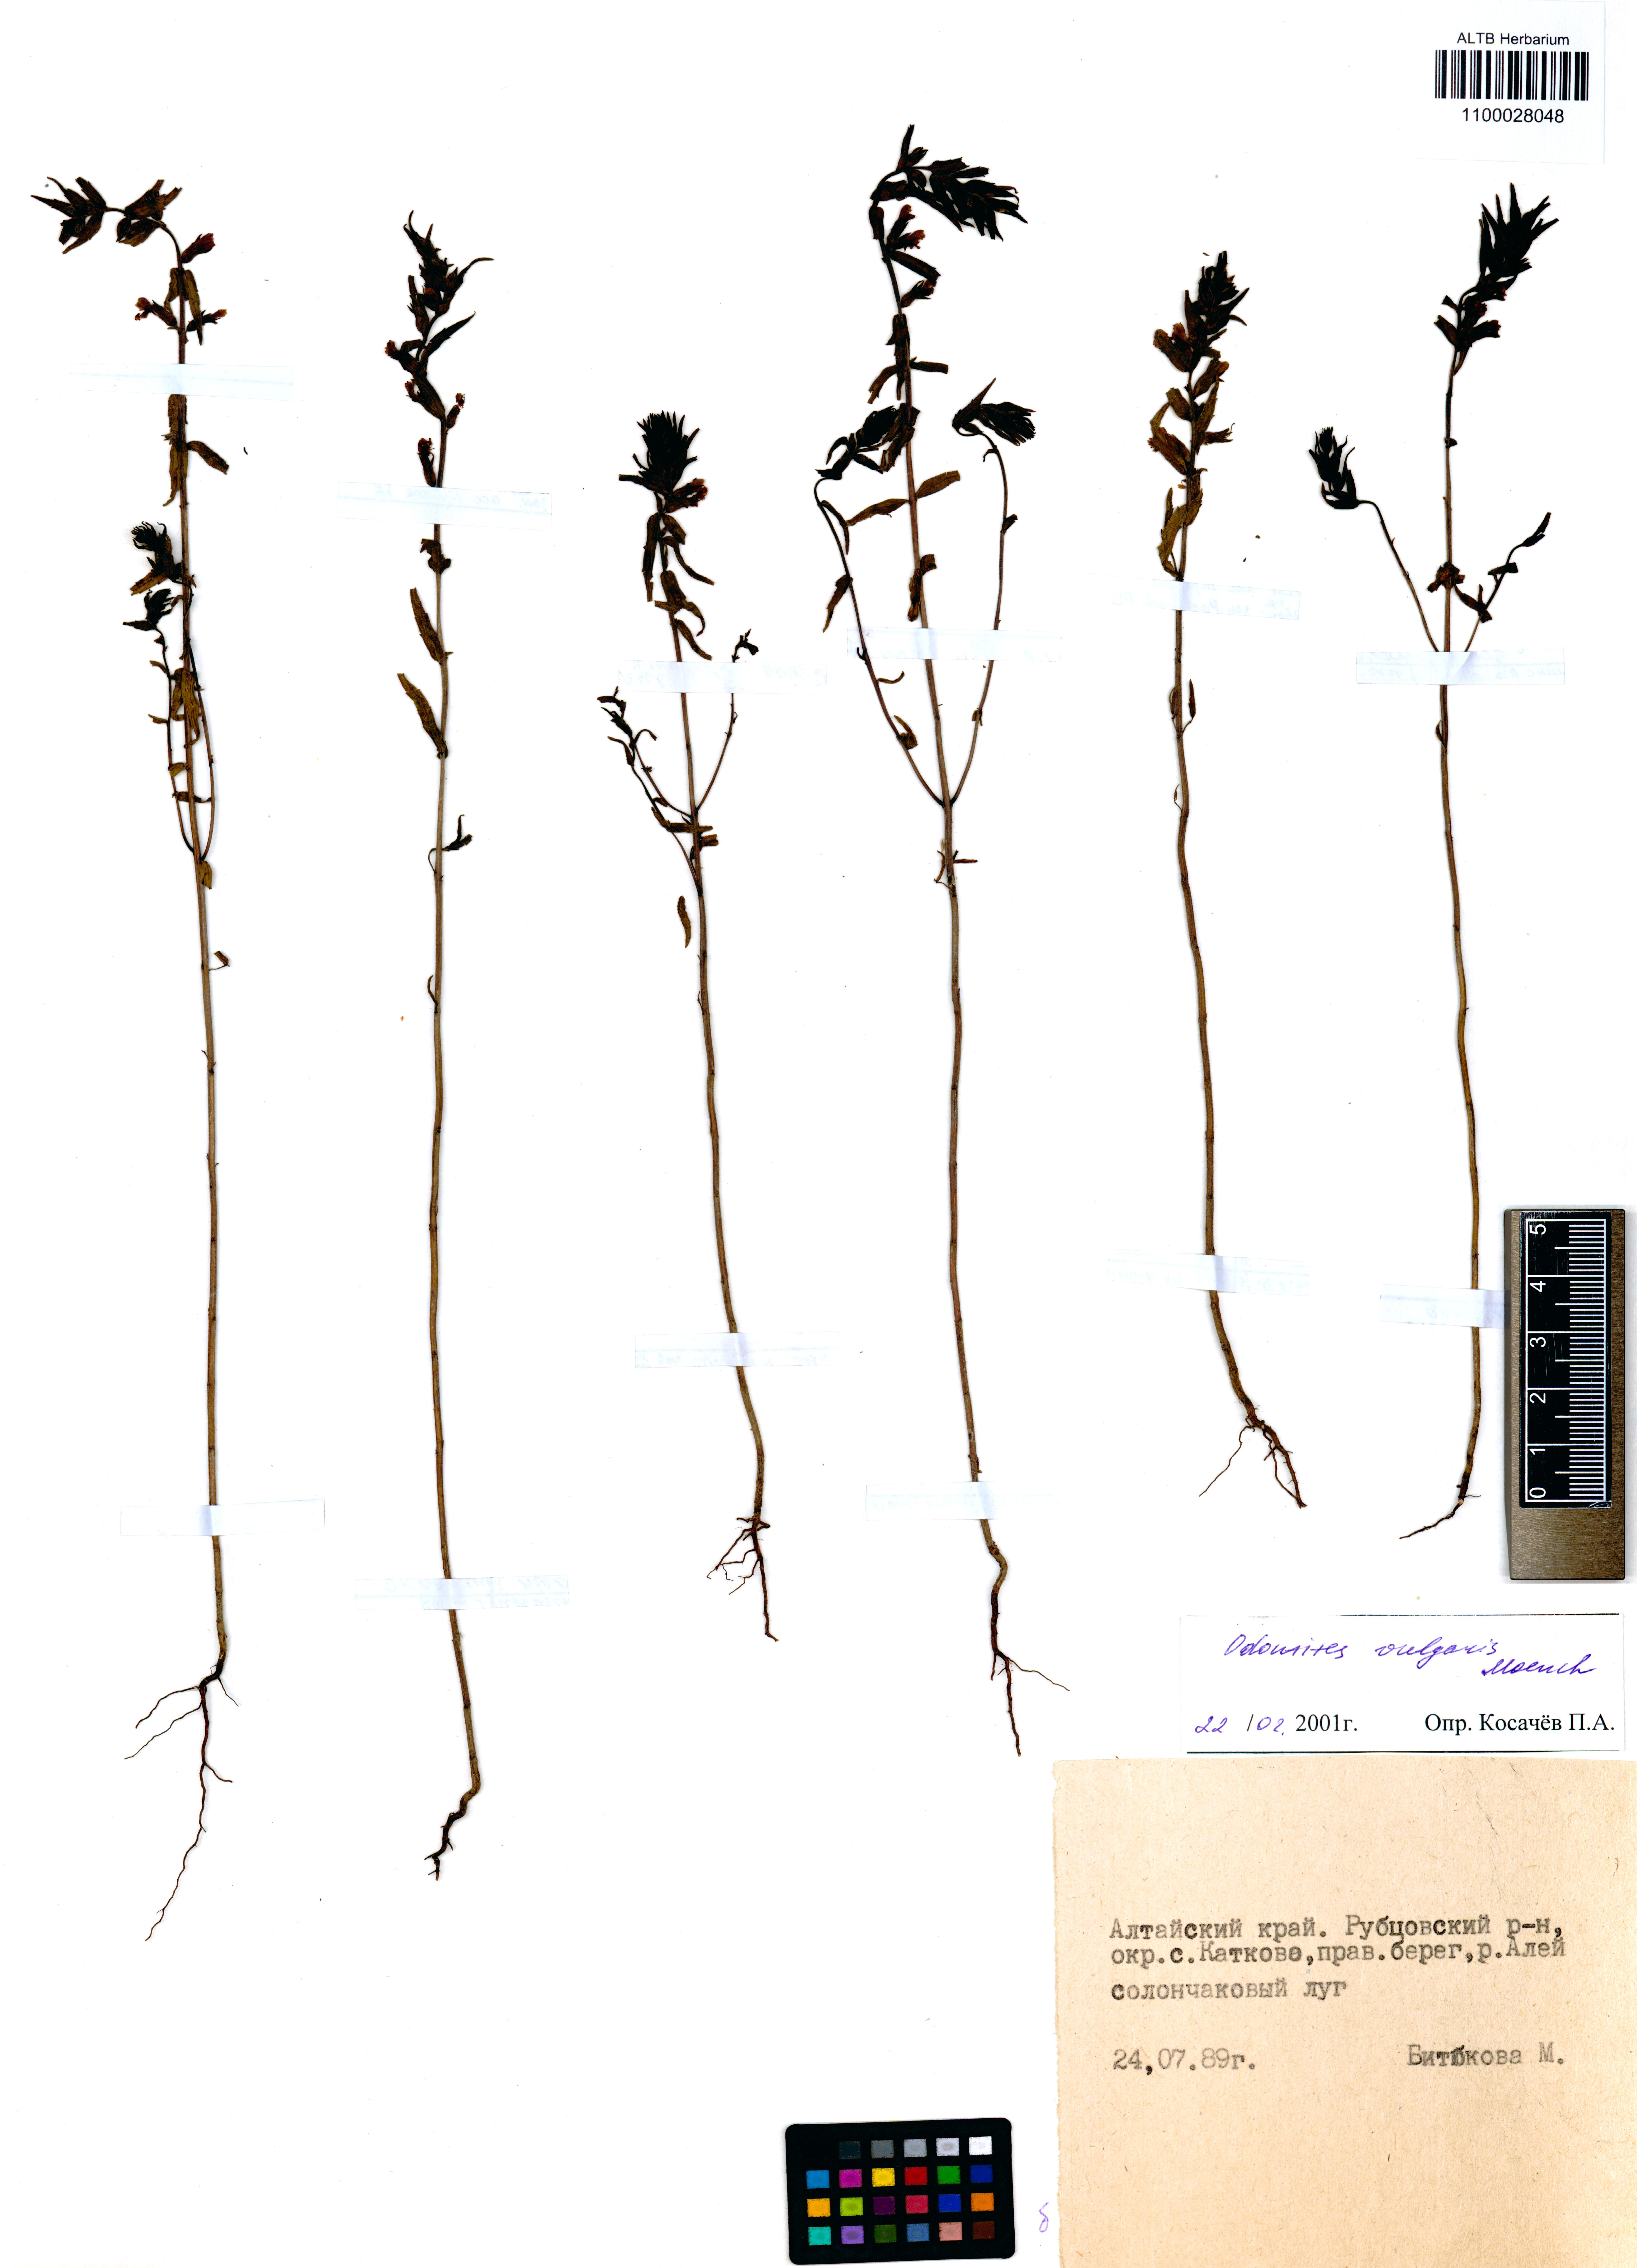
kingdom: Plantae
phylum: Tracheophyta
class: Magnoliopsida
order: Lamiales
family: Orobanchaceae
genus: Odontites
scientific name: Odontites vulgaris
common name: Broomrape
